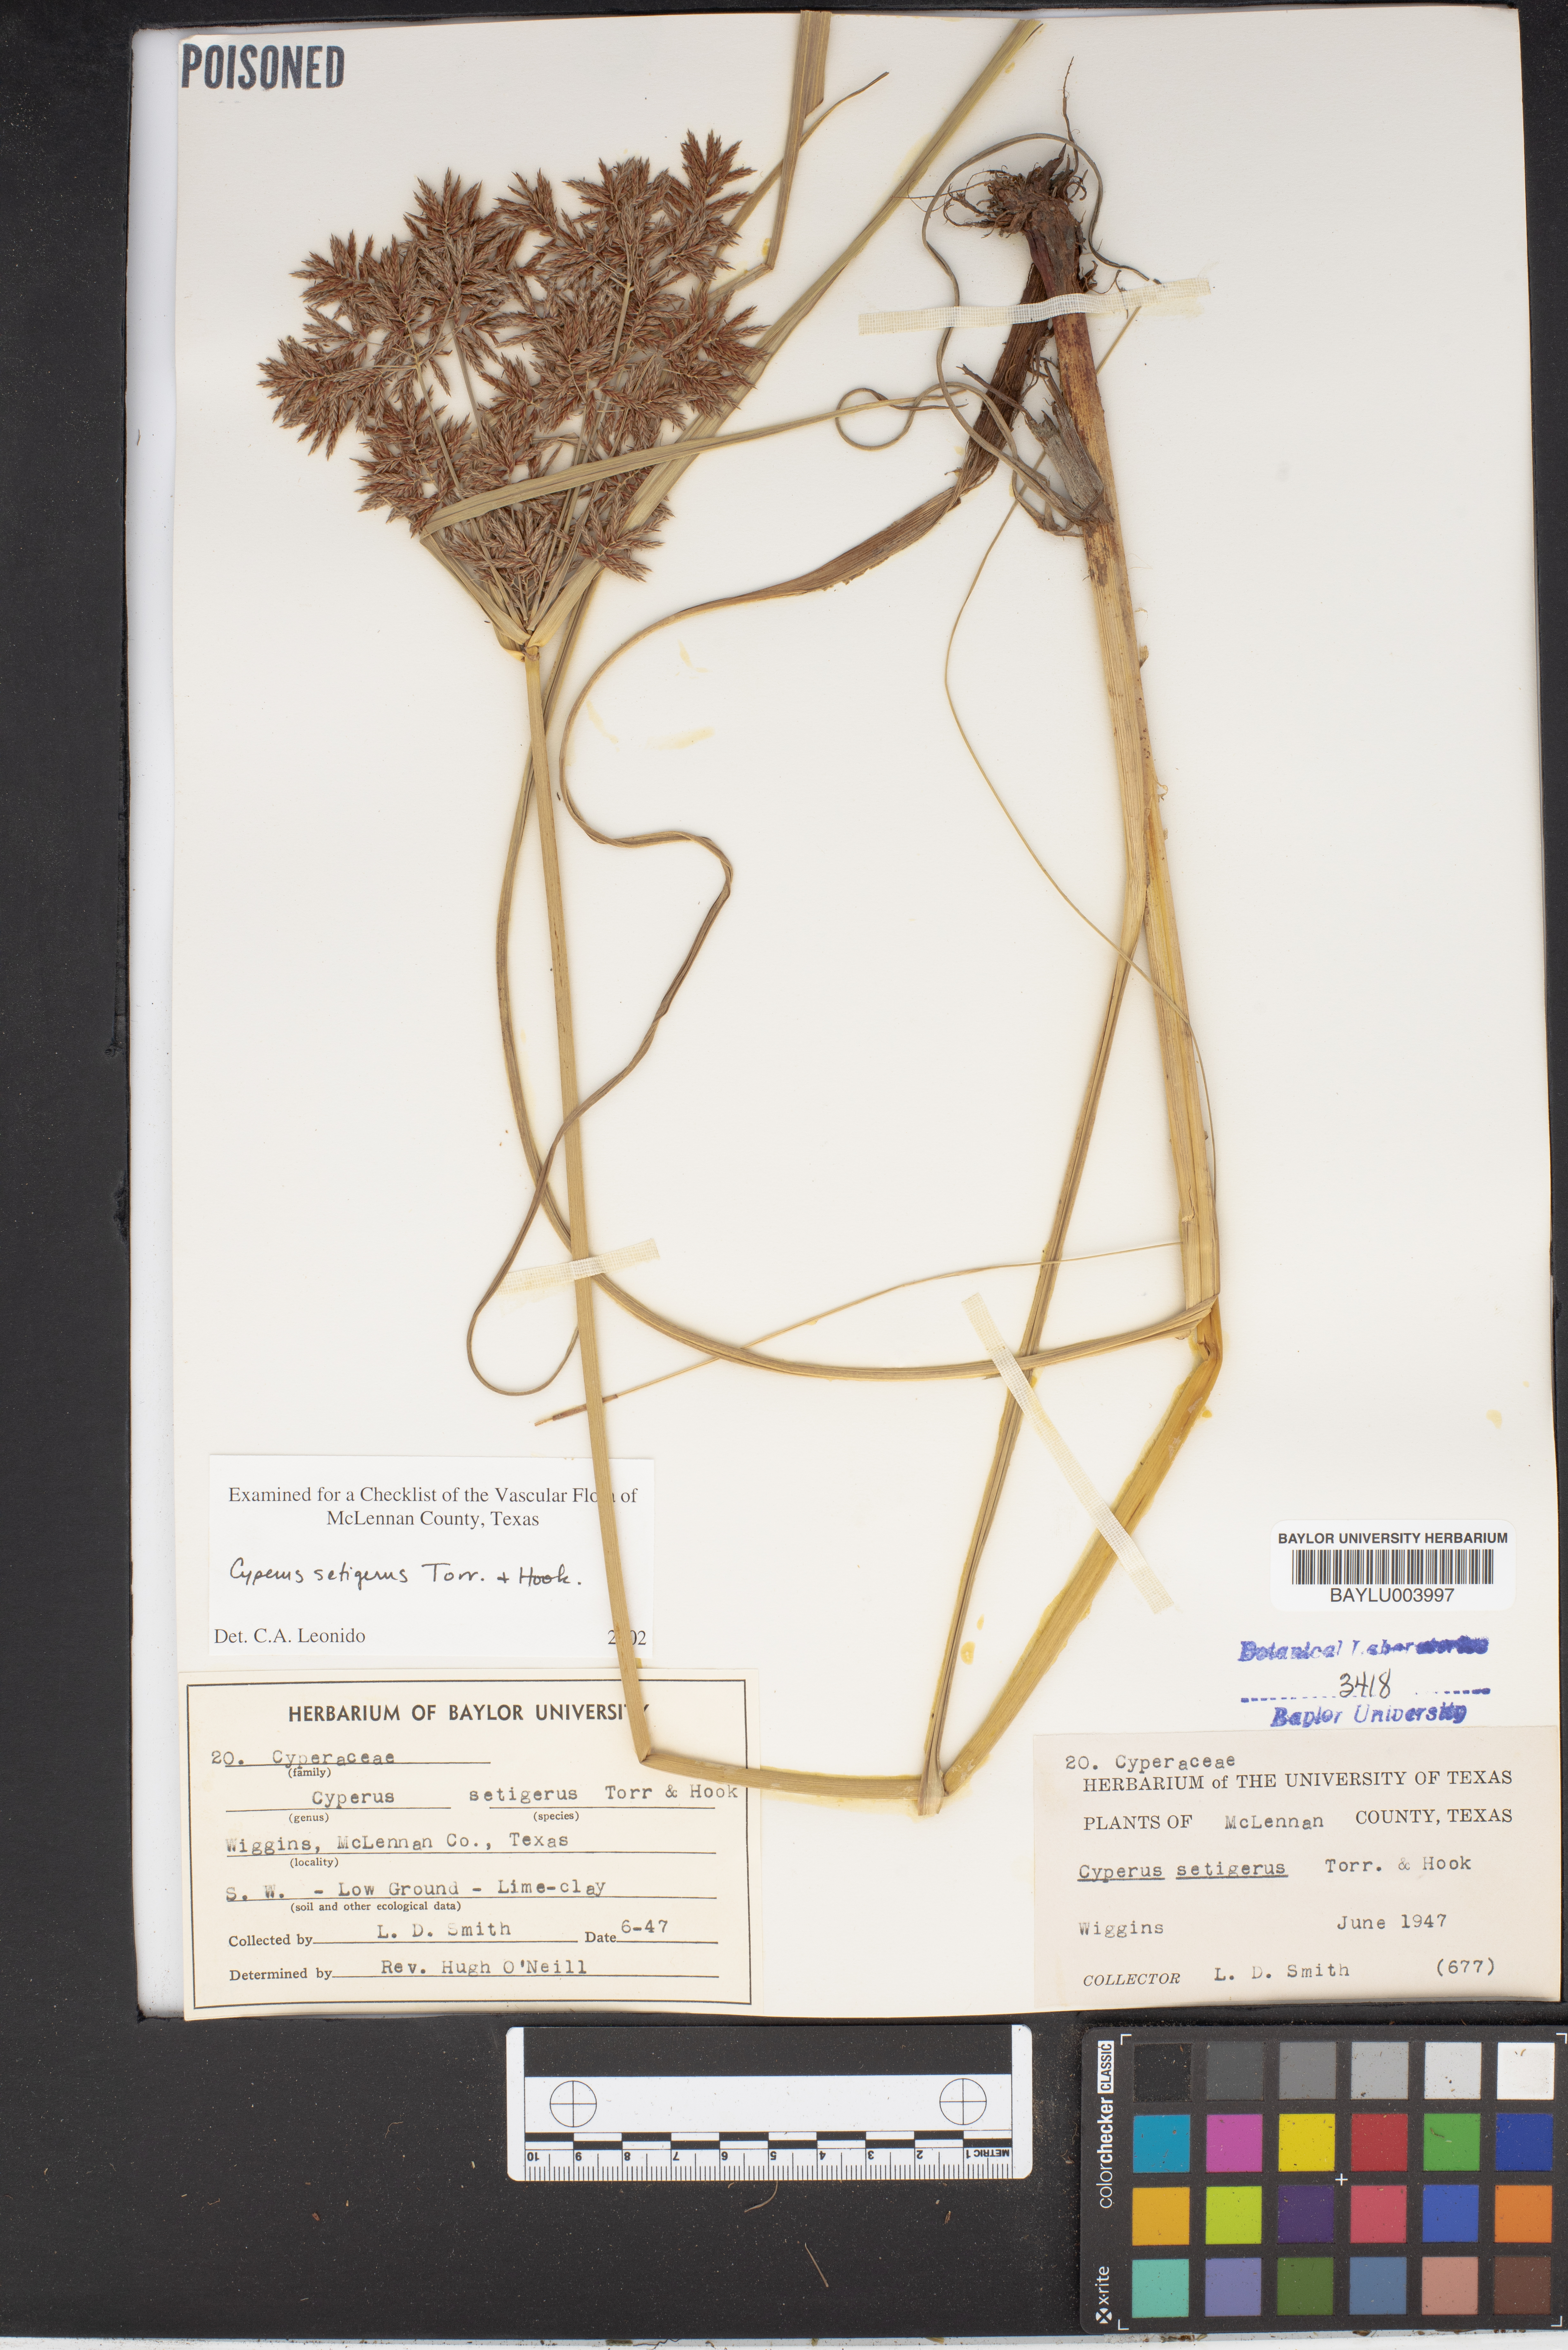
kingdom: Plantae
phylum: Tracheophyta
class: Liliopsida
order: Poales
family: Cyperaceae
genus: Cyperus
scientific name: Cyperus setigerus
